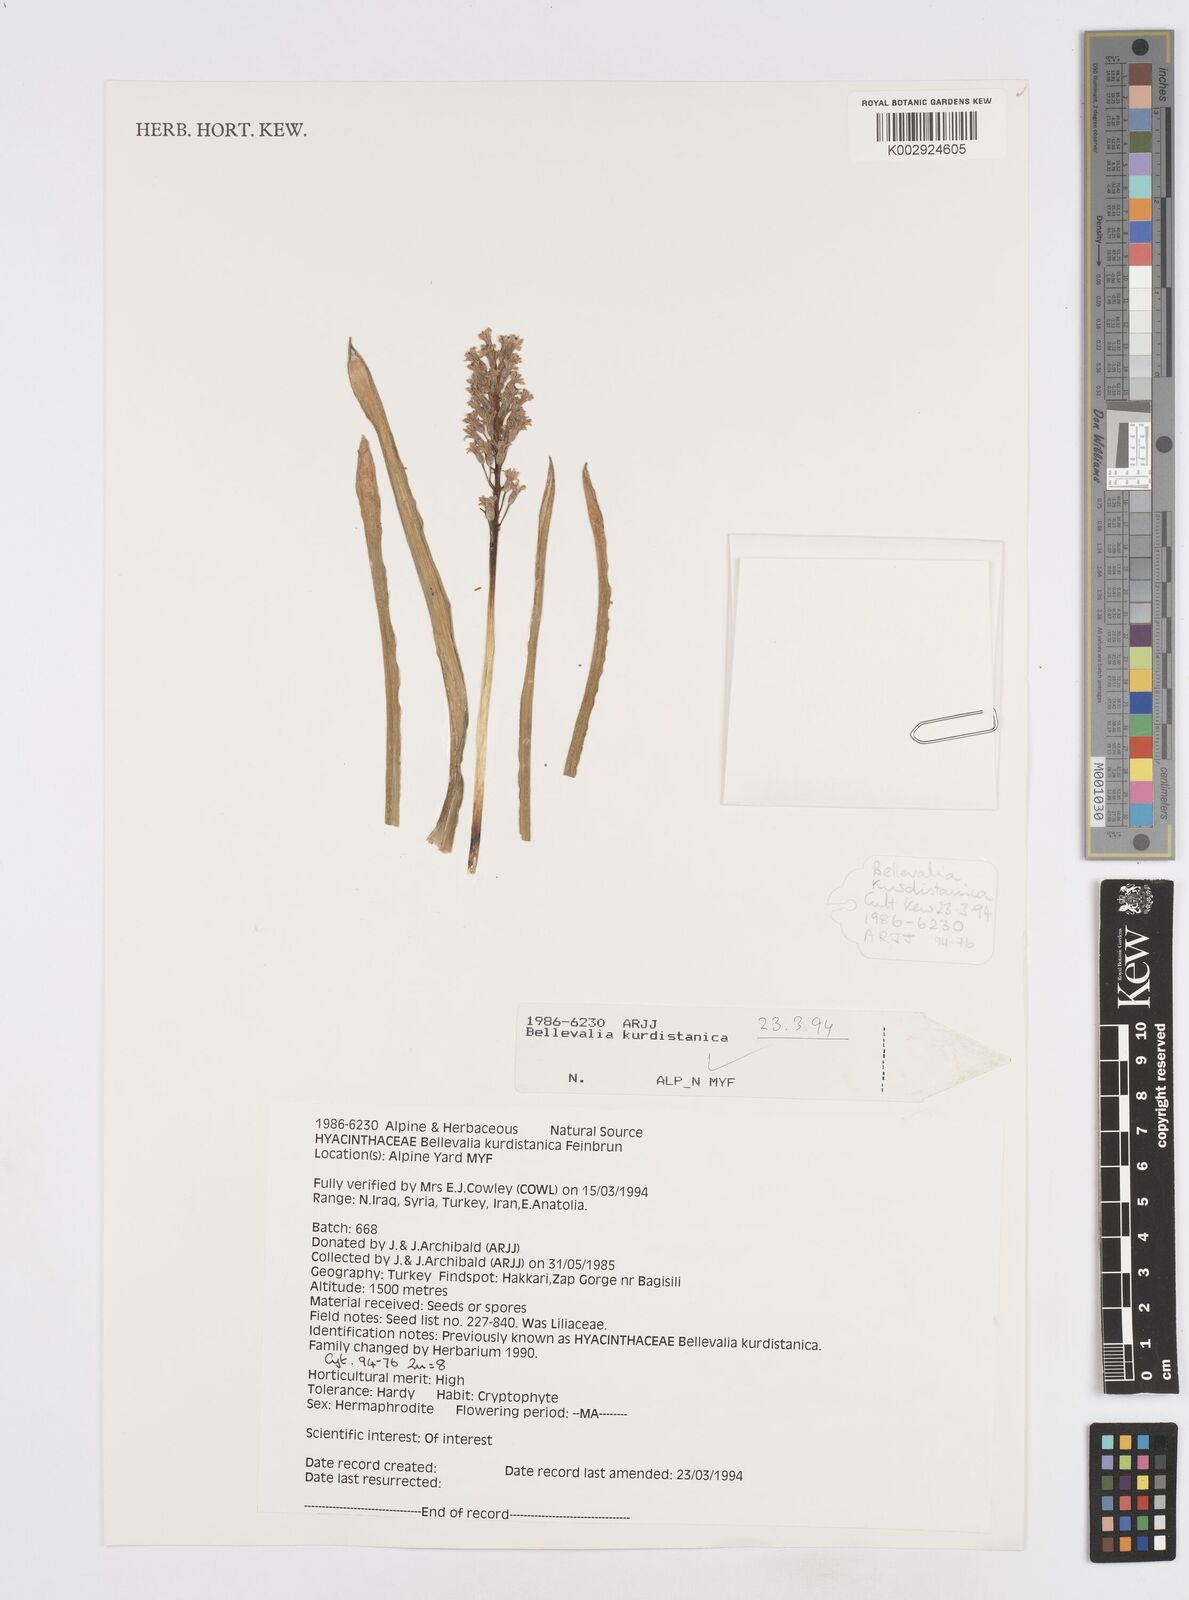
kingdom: Plantae
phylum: Tracheophyta
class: Liliopsida
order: Asparagales
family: Asparagaceae
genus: Bellevalia
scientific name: Bellevalia kurdistanica
